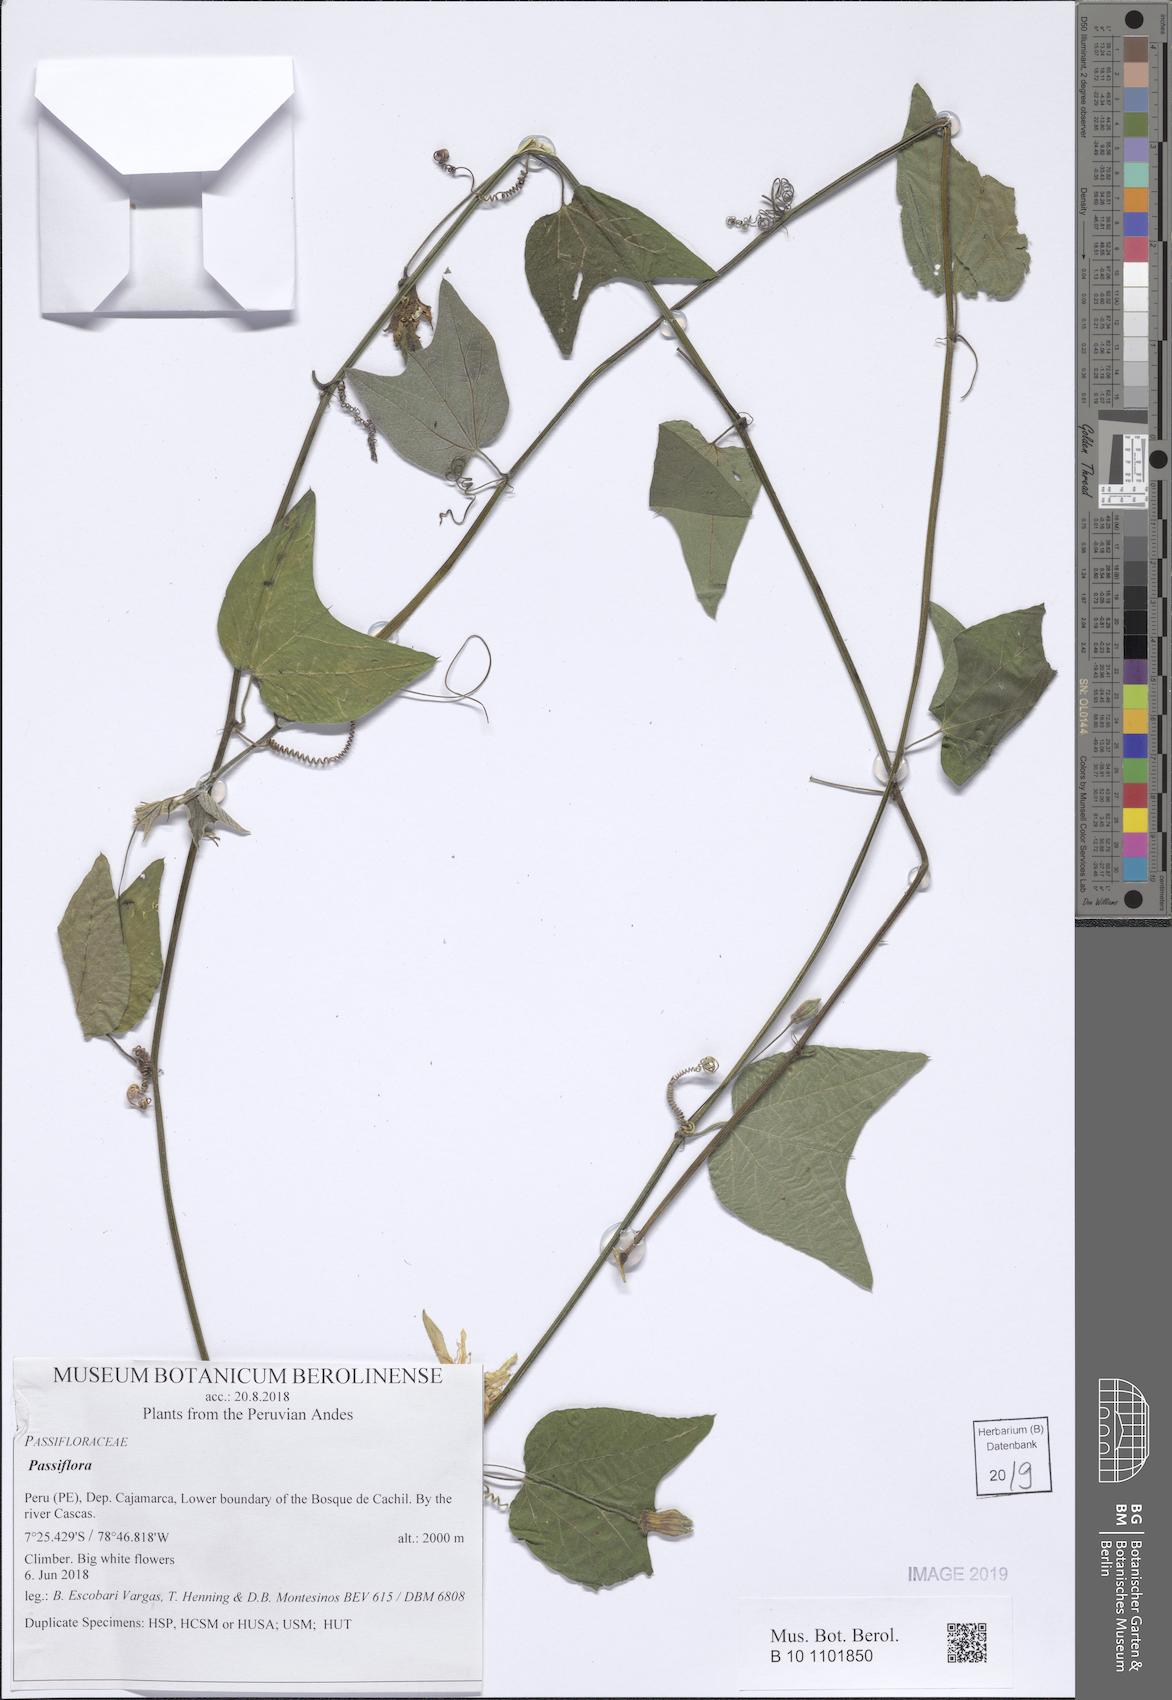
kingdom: Plantae
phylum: Tracheophyta
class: Magnoliopsida
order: Malpighiales
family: Passifloraceae
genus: Passiflora
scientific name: Passiflora
